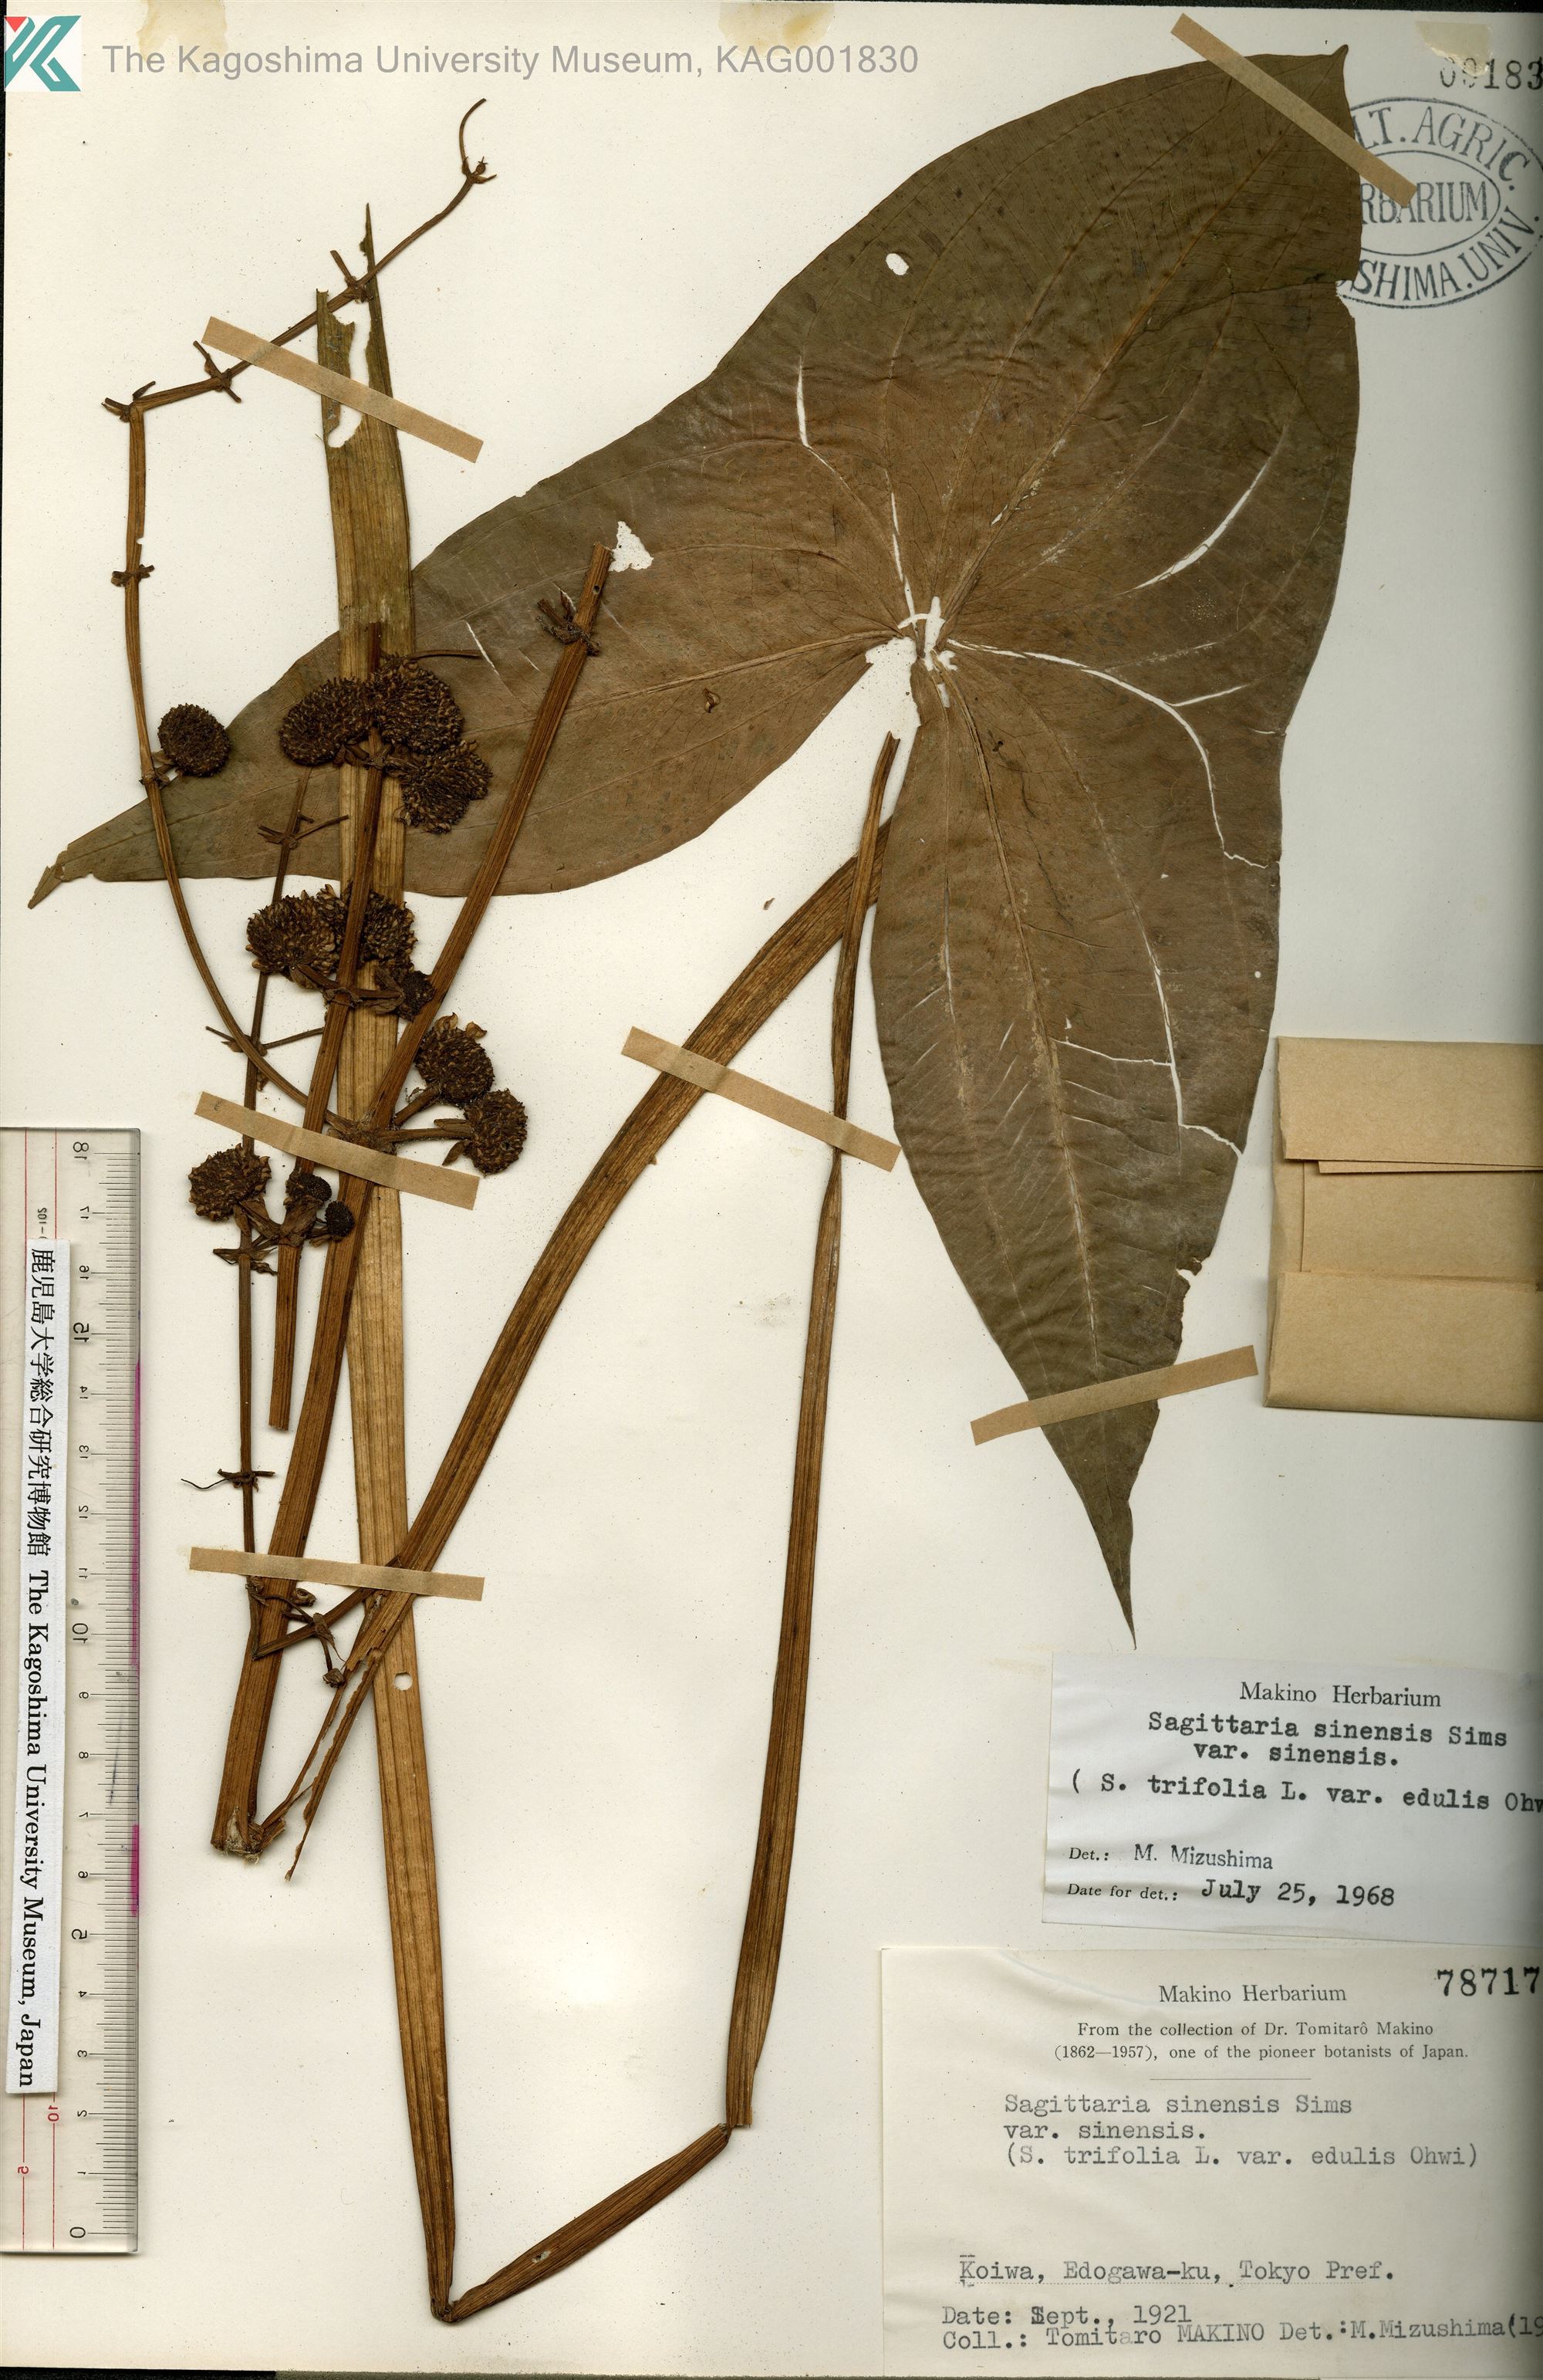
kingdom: Plantae
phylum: Tracheophyta
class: Liliopsida
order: Alismatales
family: Alismataceae
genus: Sagittaria
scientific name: Sagittaria trifolia
